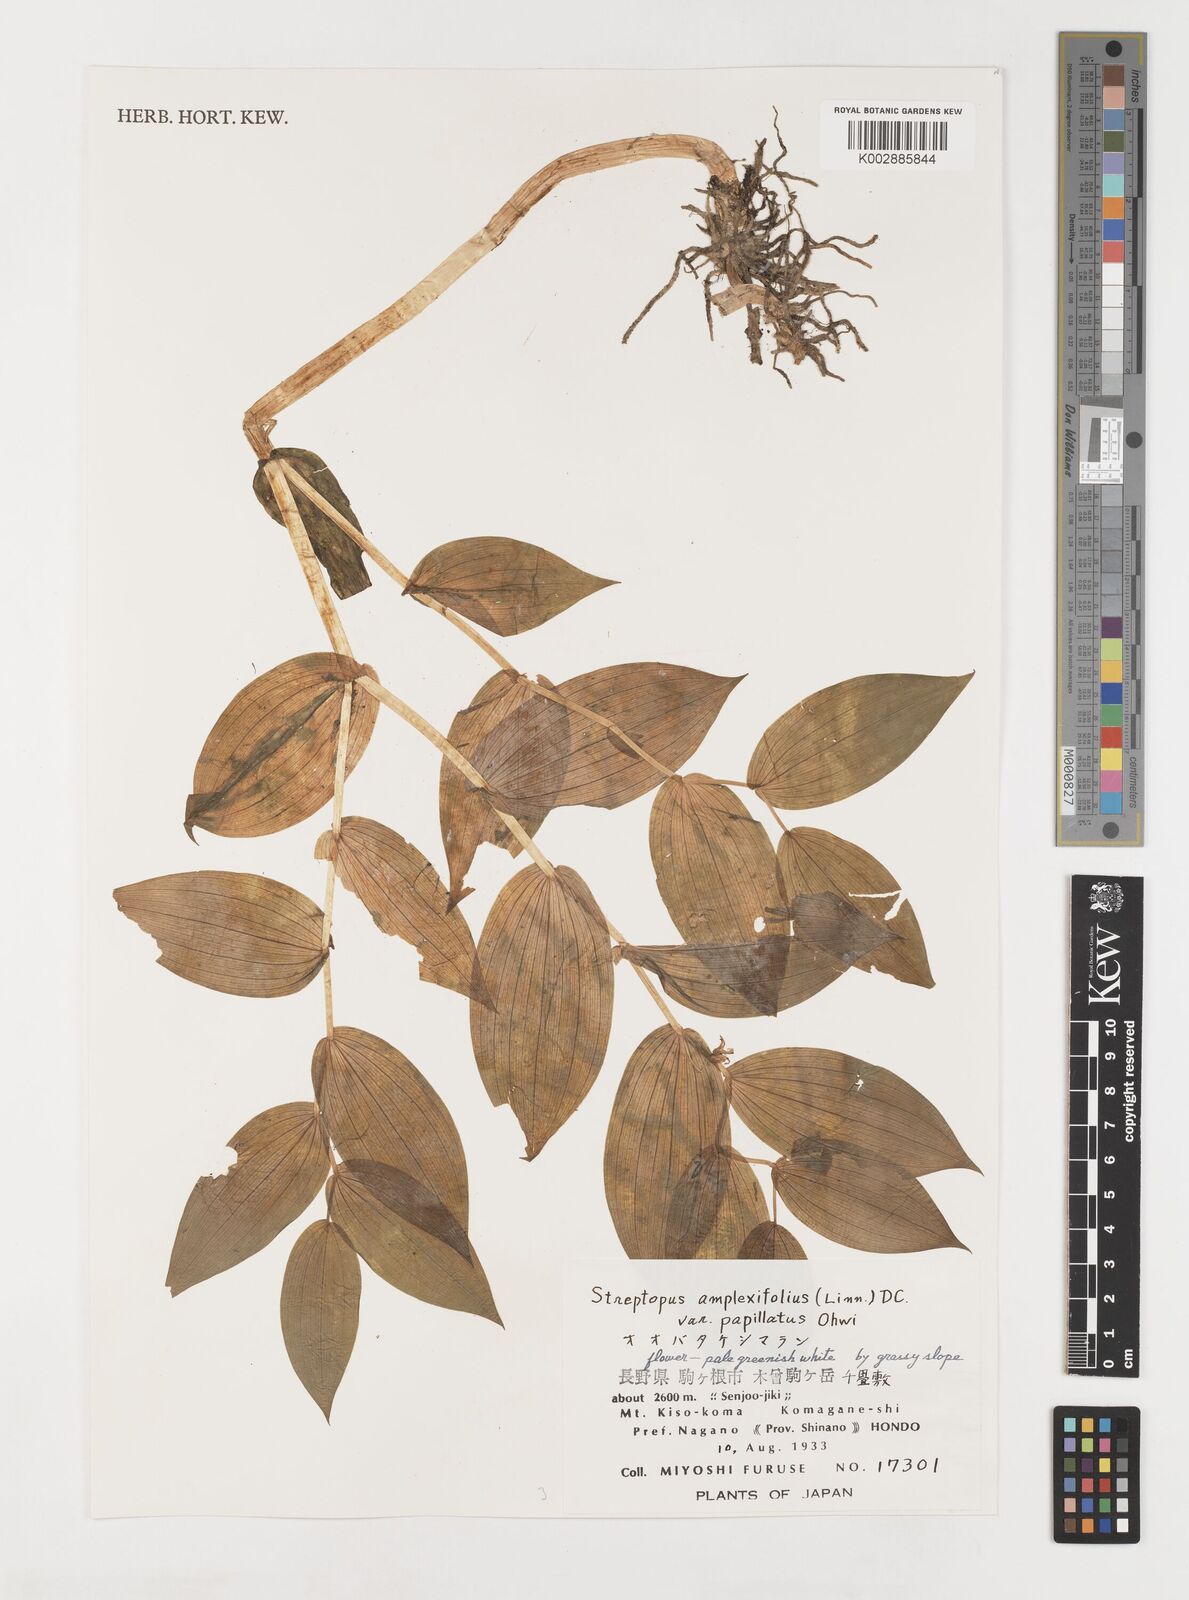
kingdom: Plantae
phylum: Tracheophyta
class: Liliopsida
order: Liliales
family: Liliaceae
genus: Streptopus
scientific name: Streptopus amplexifolius
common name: Clasp twisted stalk
